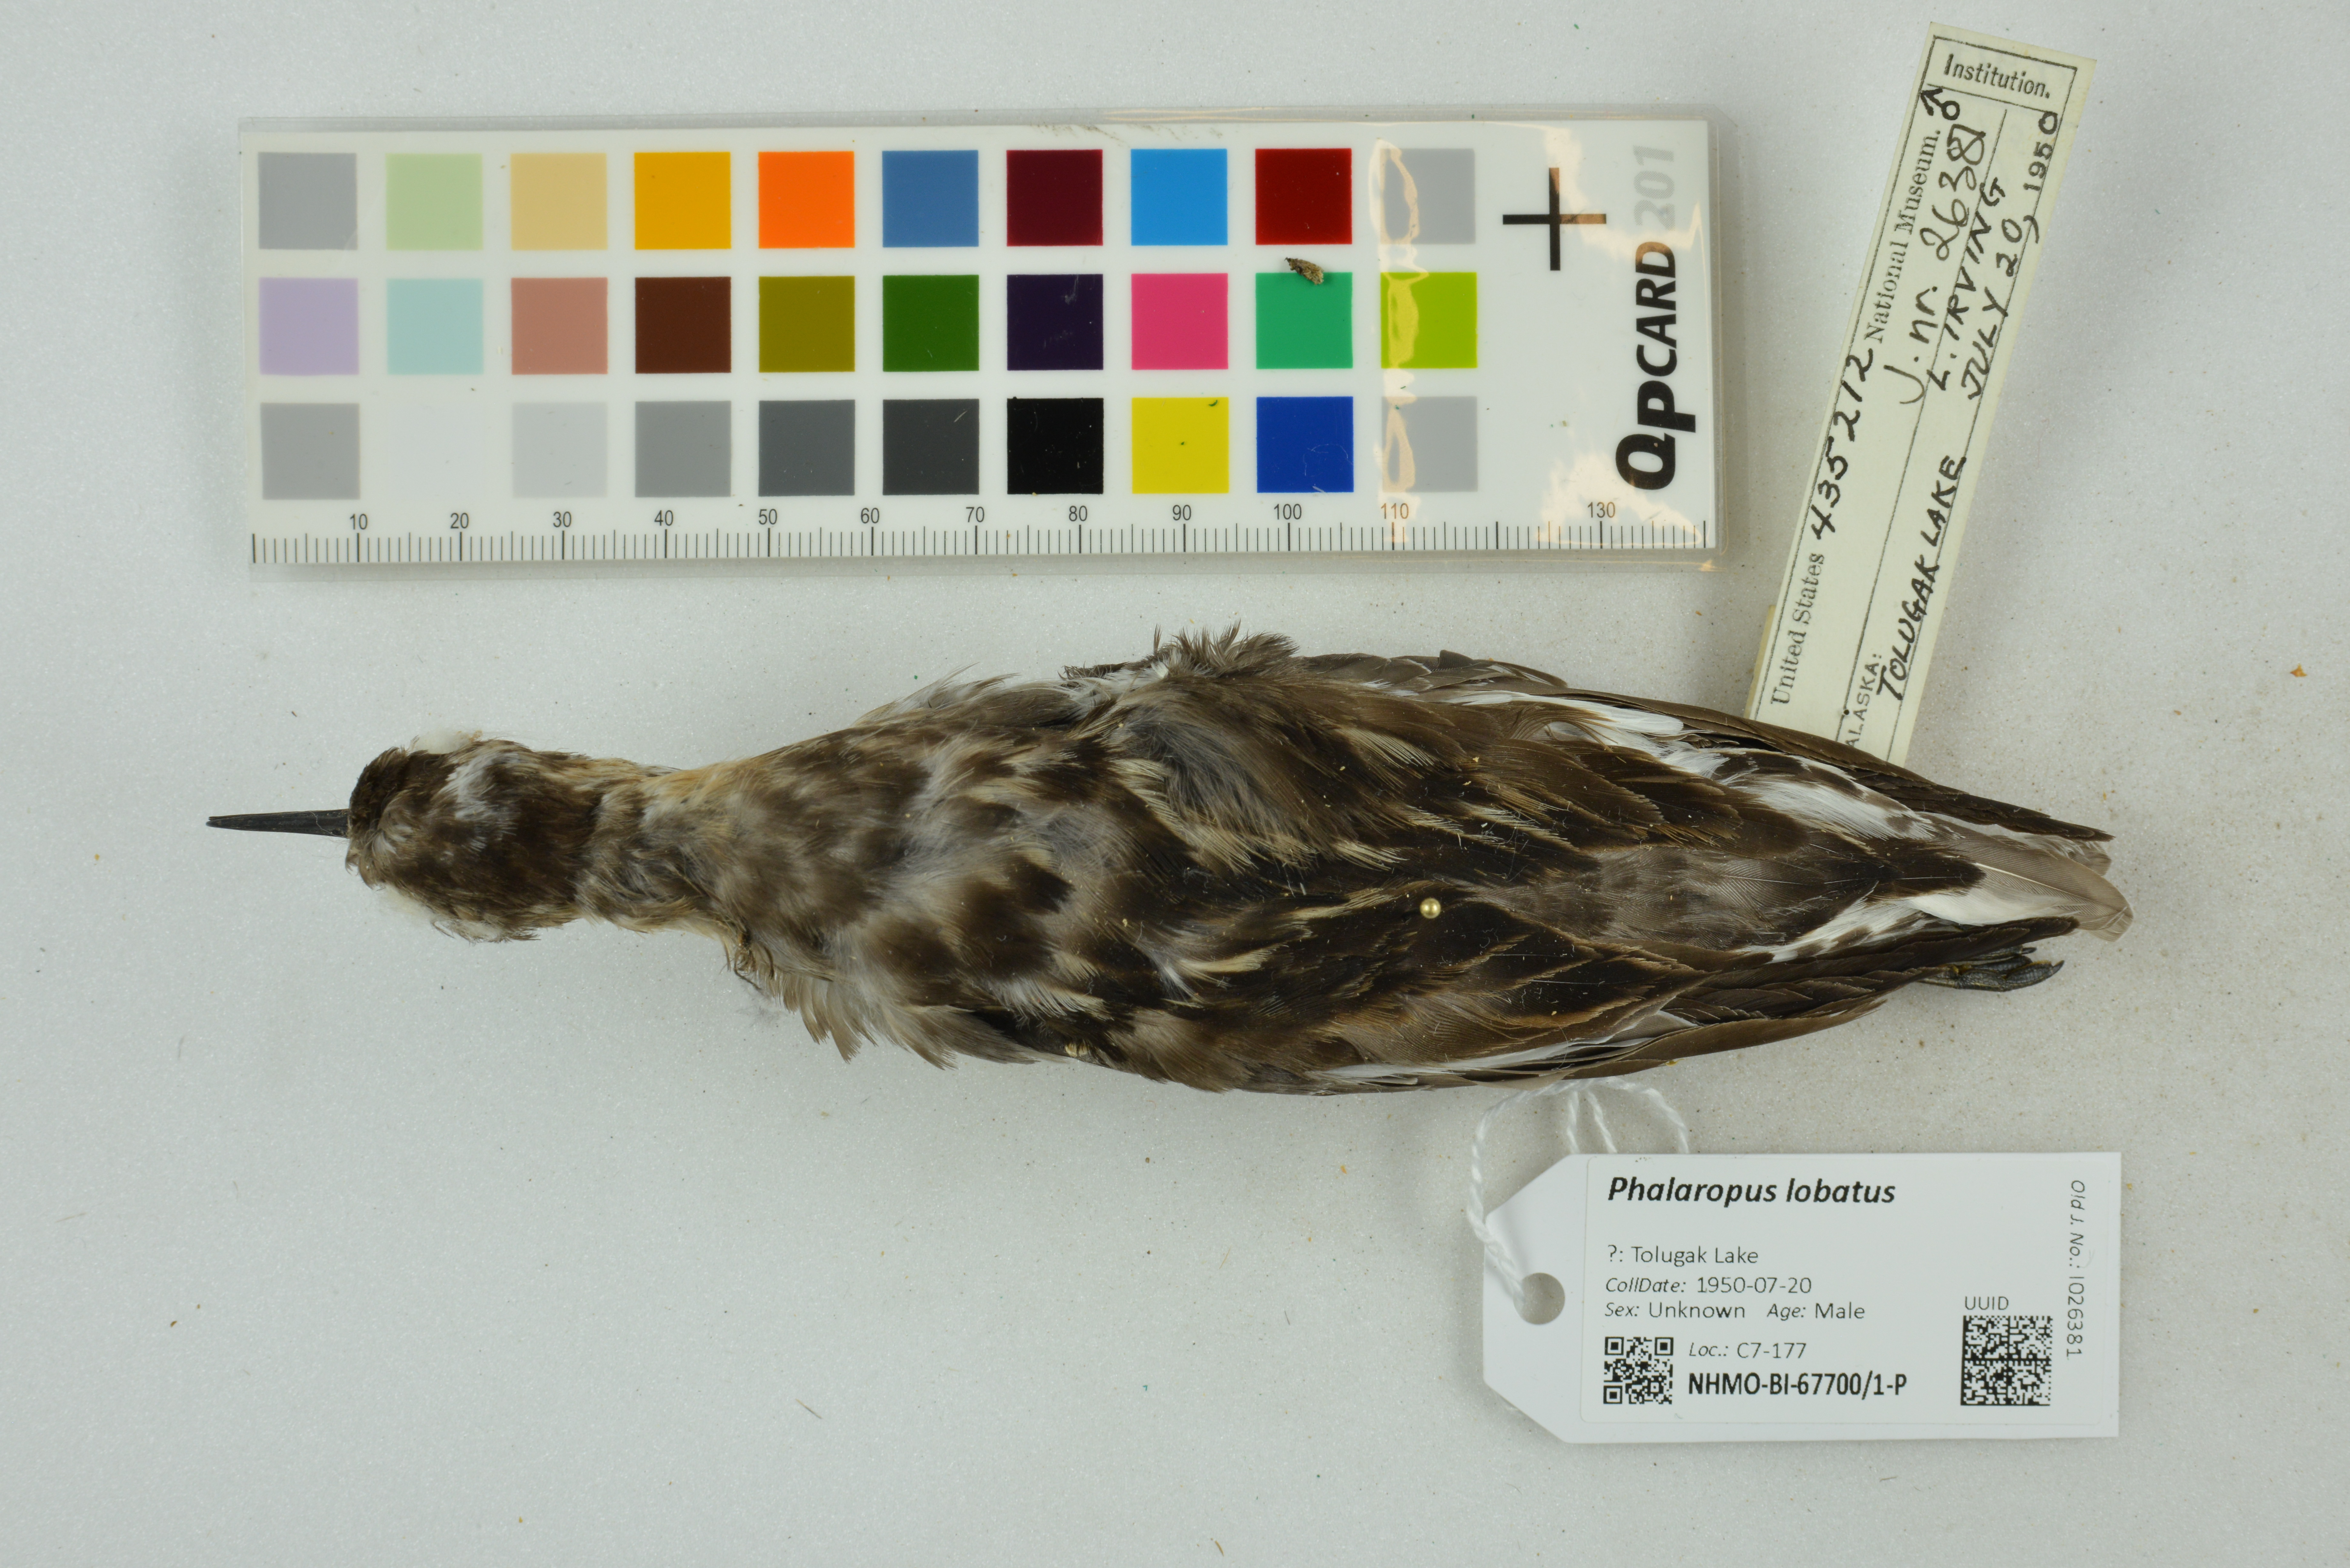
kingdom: Animalia
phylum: Chordata
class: Aves
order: Charadriiformes
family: Scolopacidae
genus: Phalaropus
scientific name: Phalaropus lobatus
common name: Red-necked phalarope
